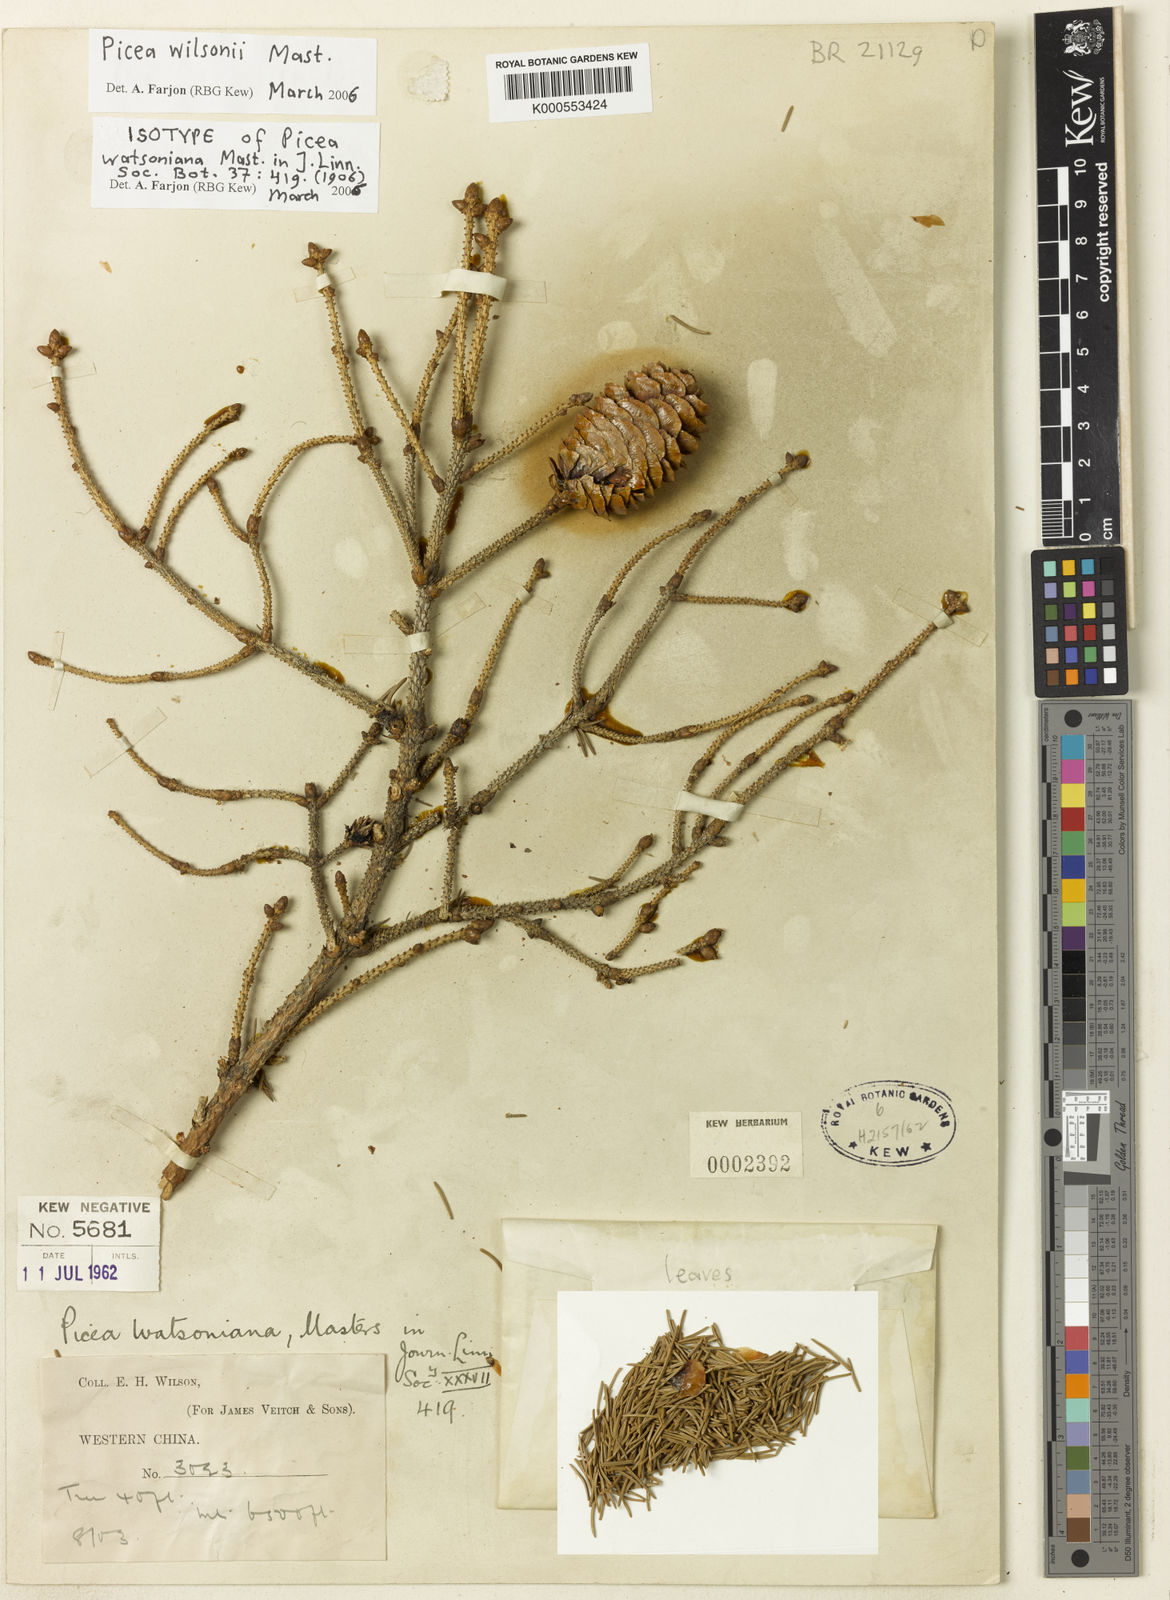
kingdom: Plantae
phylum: Tracheophyta
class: Pinopsida
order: Pinales
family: Pinaceae
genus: Picea
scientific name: Picea wilsonii
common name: Wilson spruce
